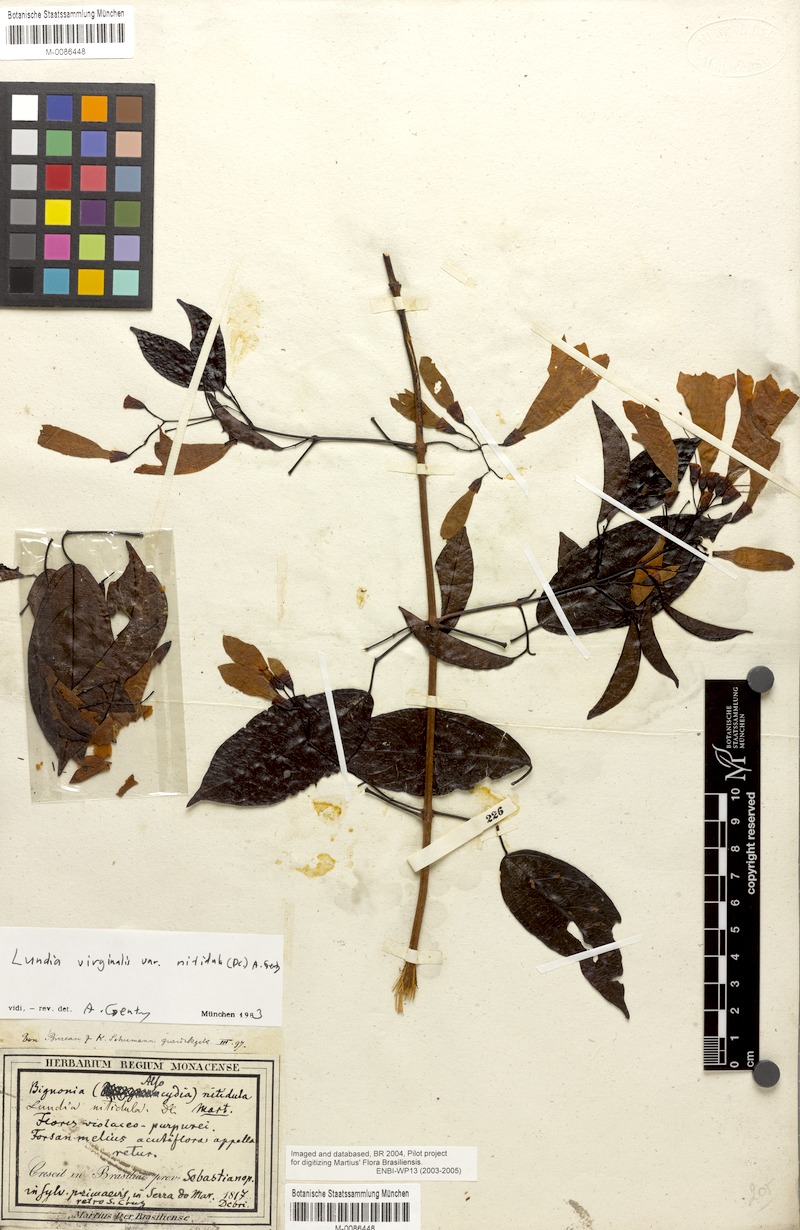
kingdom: Plantae
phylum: Tracheophyta
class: Magnoliopsida
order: Lamiales
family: Bignoniaceae
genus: Lundia
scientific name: Lundia virginalis
